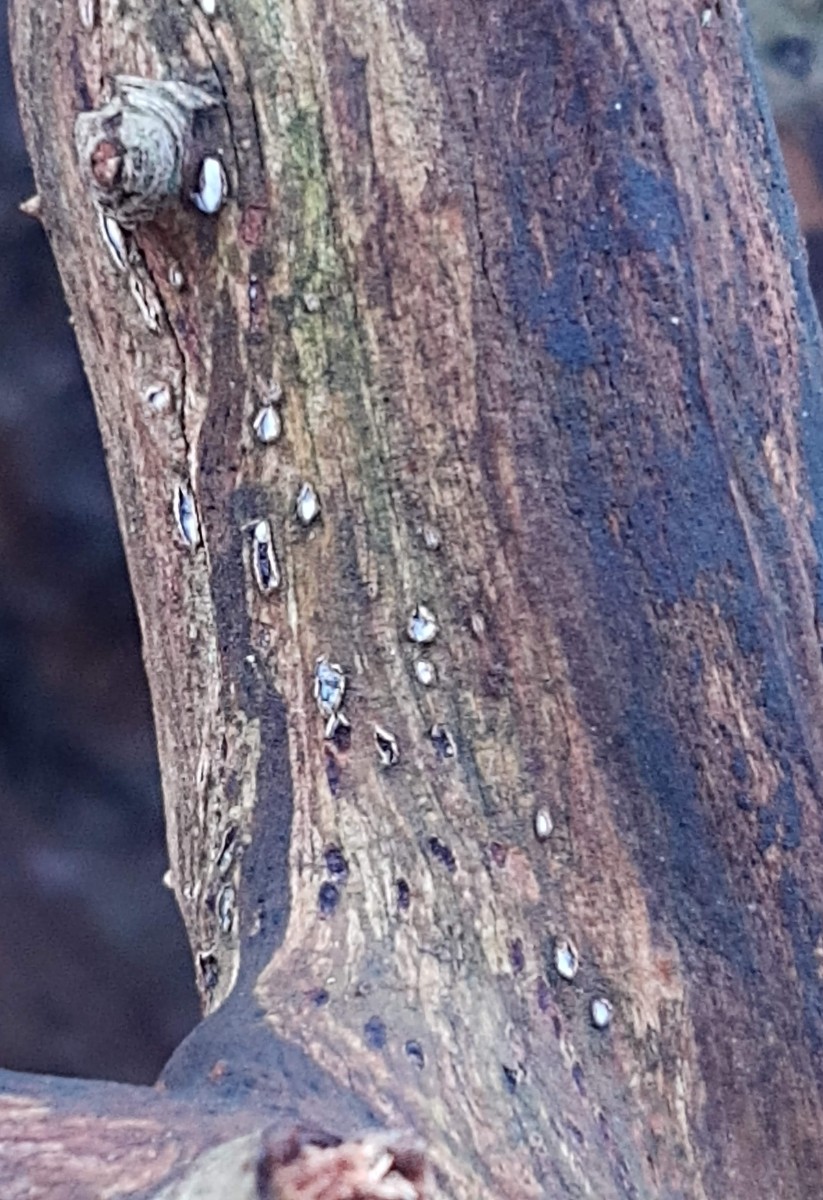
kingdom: Fungi
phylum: Ascomycota
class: Leotiomycetes
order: Chaetomellales
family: Marthamycetaceae
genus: Propolis
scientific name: Propolis farinosa
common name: almindelig vedsprængerskive
